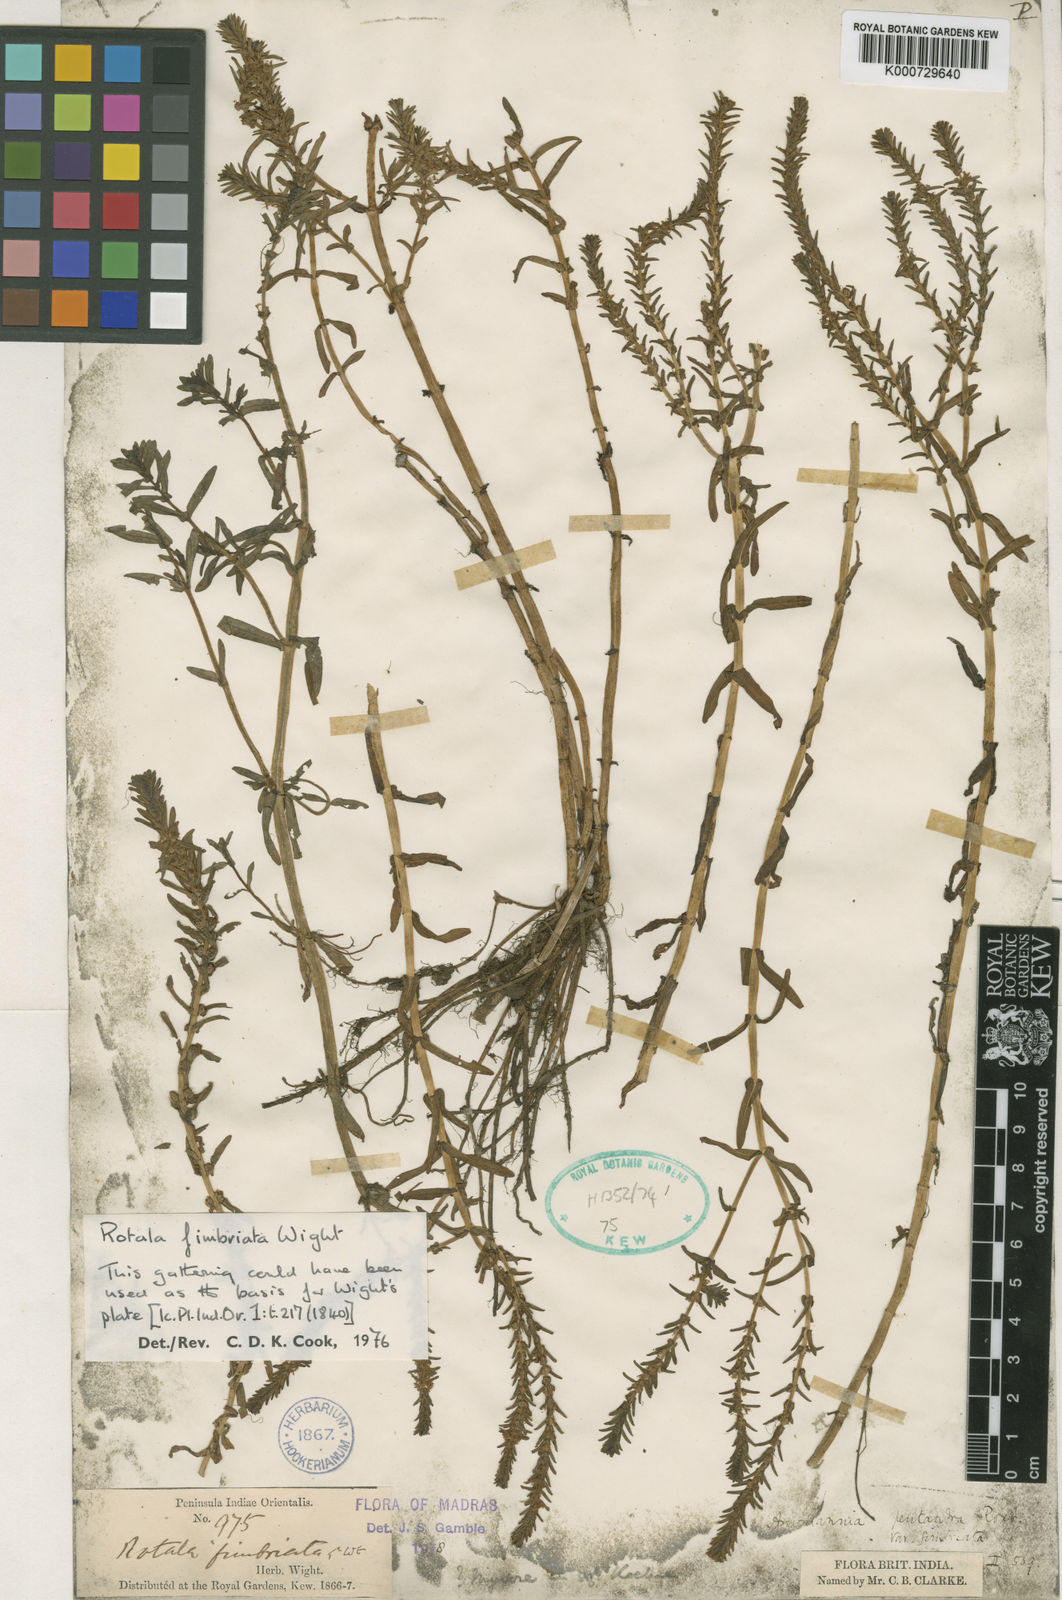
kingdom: Plantae
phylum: Tracheophyta
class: Magnoliopsida
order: Myrtales
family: Lythraceae
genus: Rotala
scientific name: Rotala fimbriata
